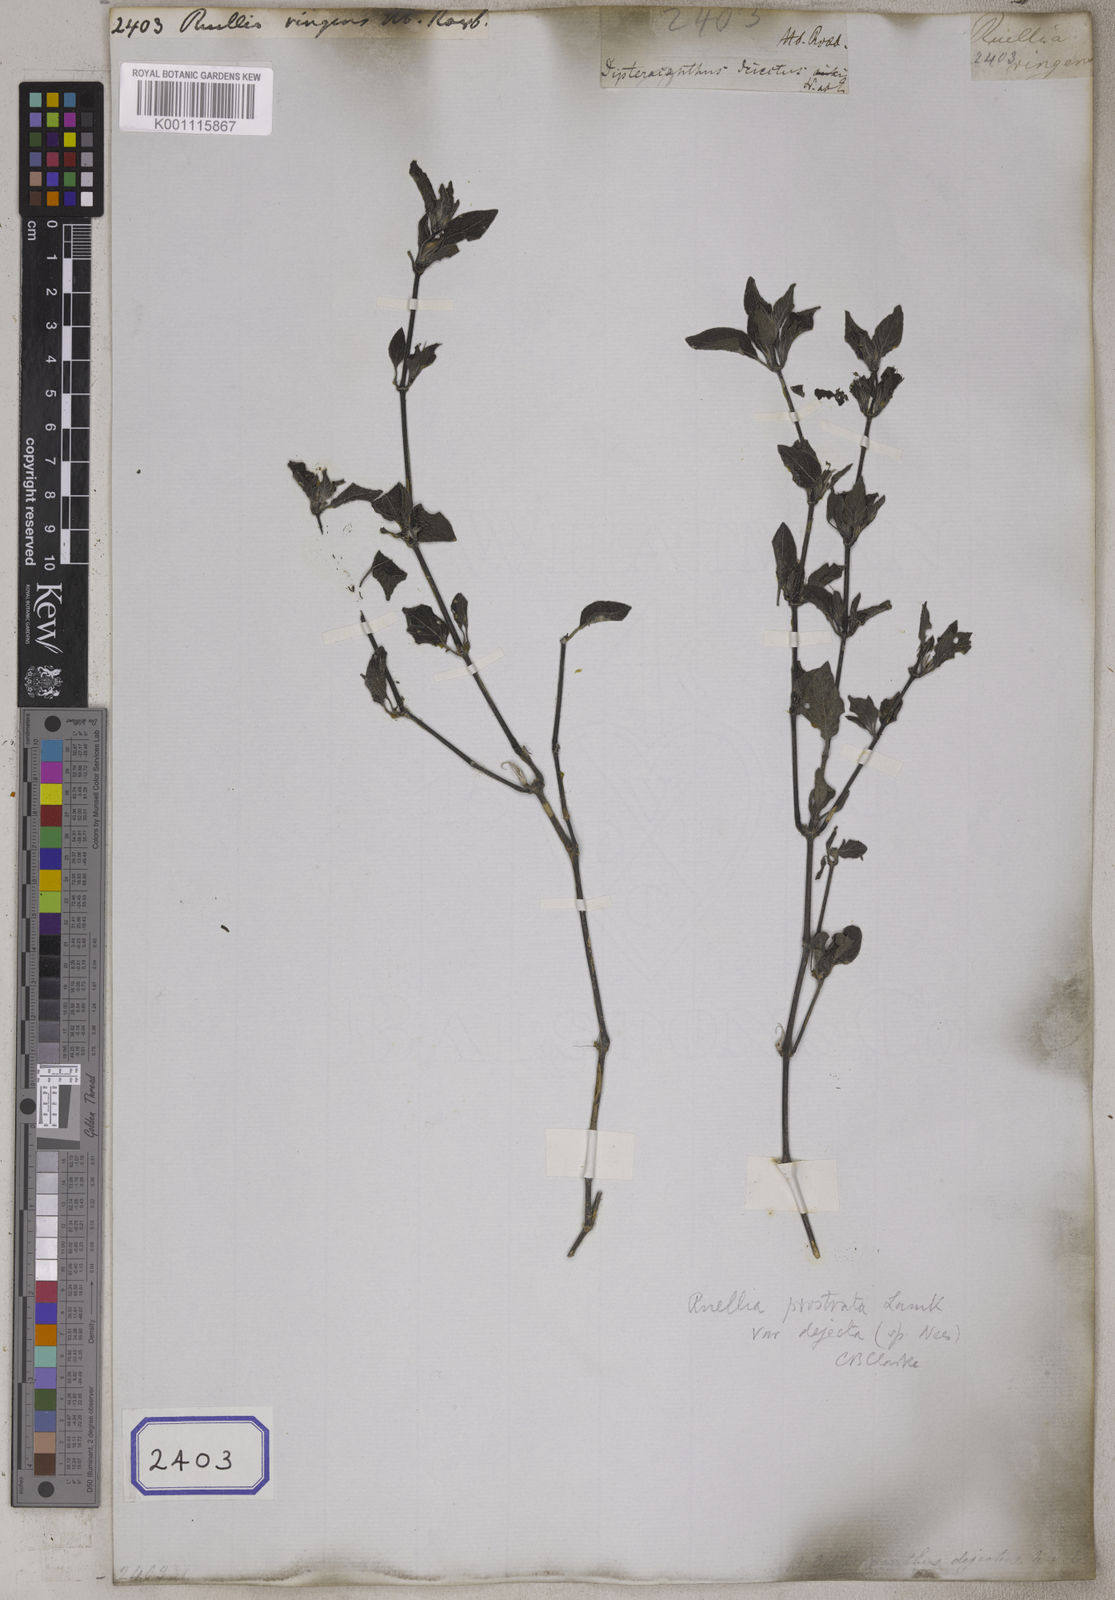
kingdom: Plantae
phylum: Tracheophyta
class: Magnoliopsida
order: Lamiales
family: Acanthaceae
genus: Ruellia
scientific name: Ruellia prostrata
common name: Prostrate wild petunia
